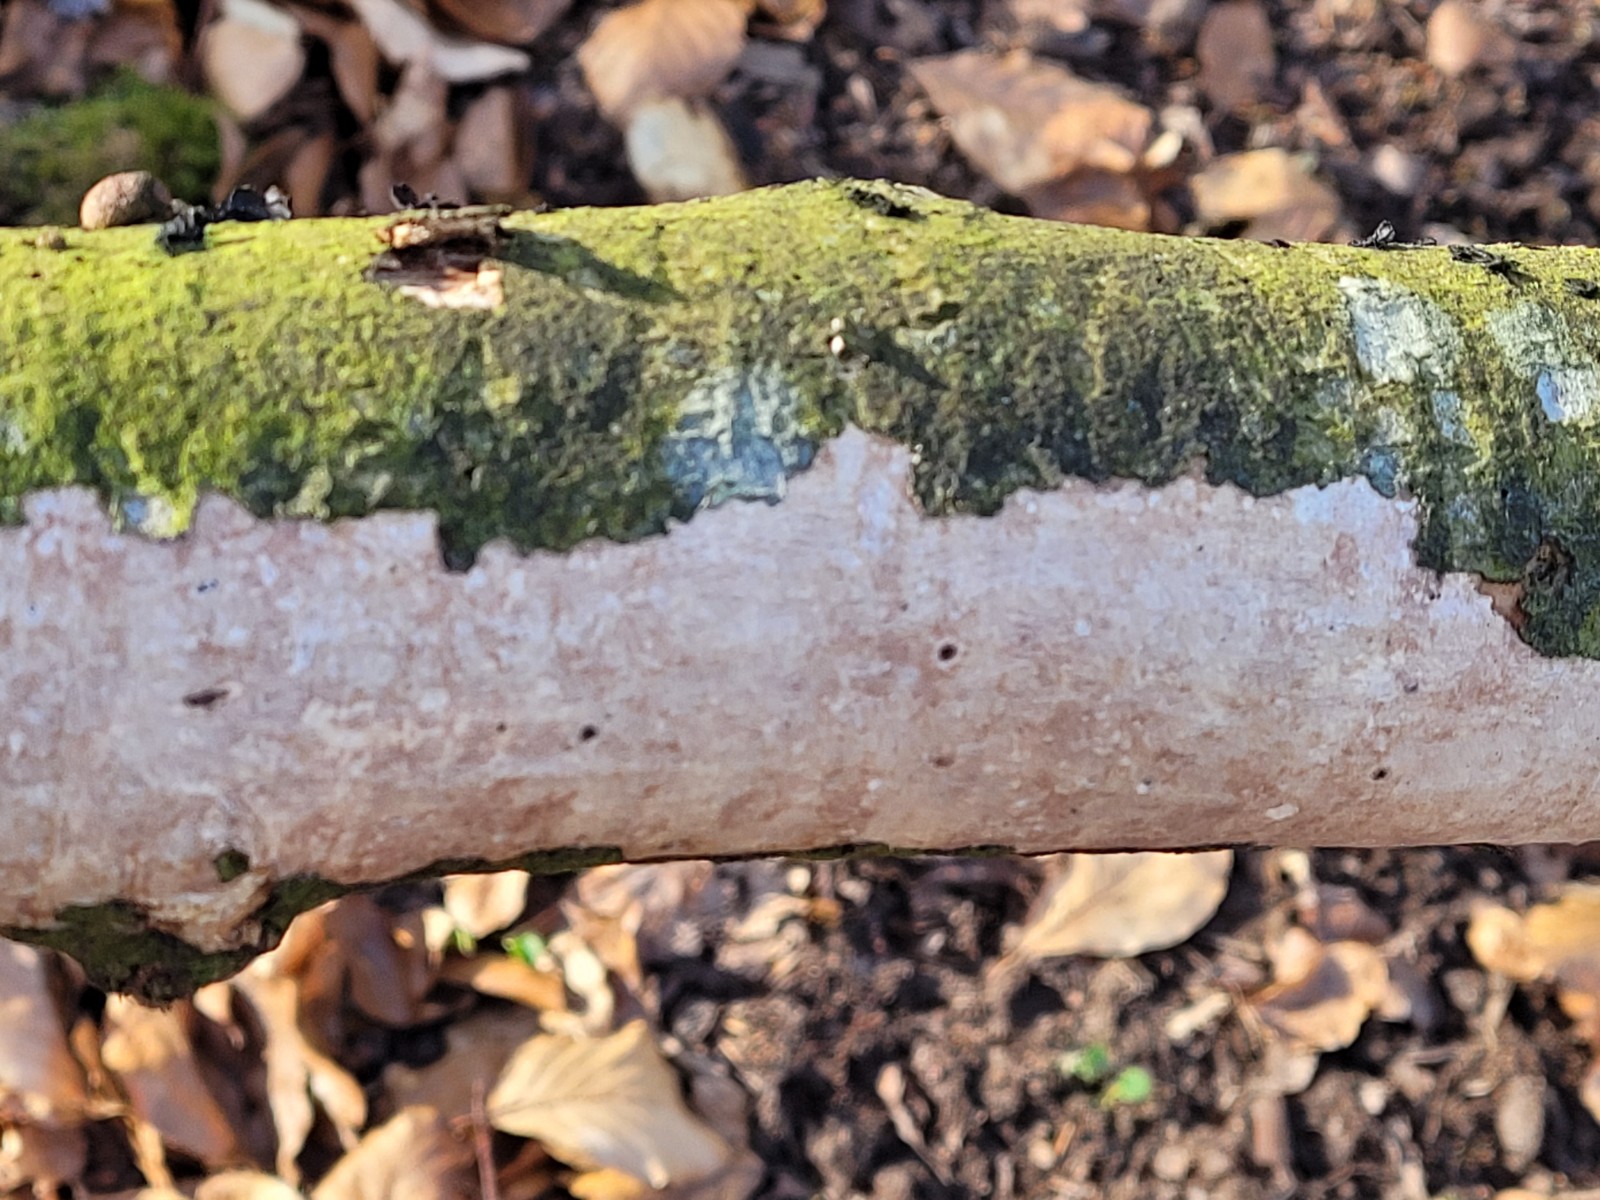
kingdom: Fungi
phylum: Basidiomycota
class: Agaricomycetes
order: Corticiales
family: Vuilleminiaceae
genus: Vuilleminia
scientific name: Vuilleminia comedens
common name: almindelig barksprænger
